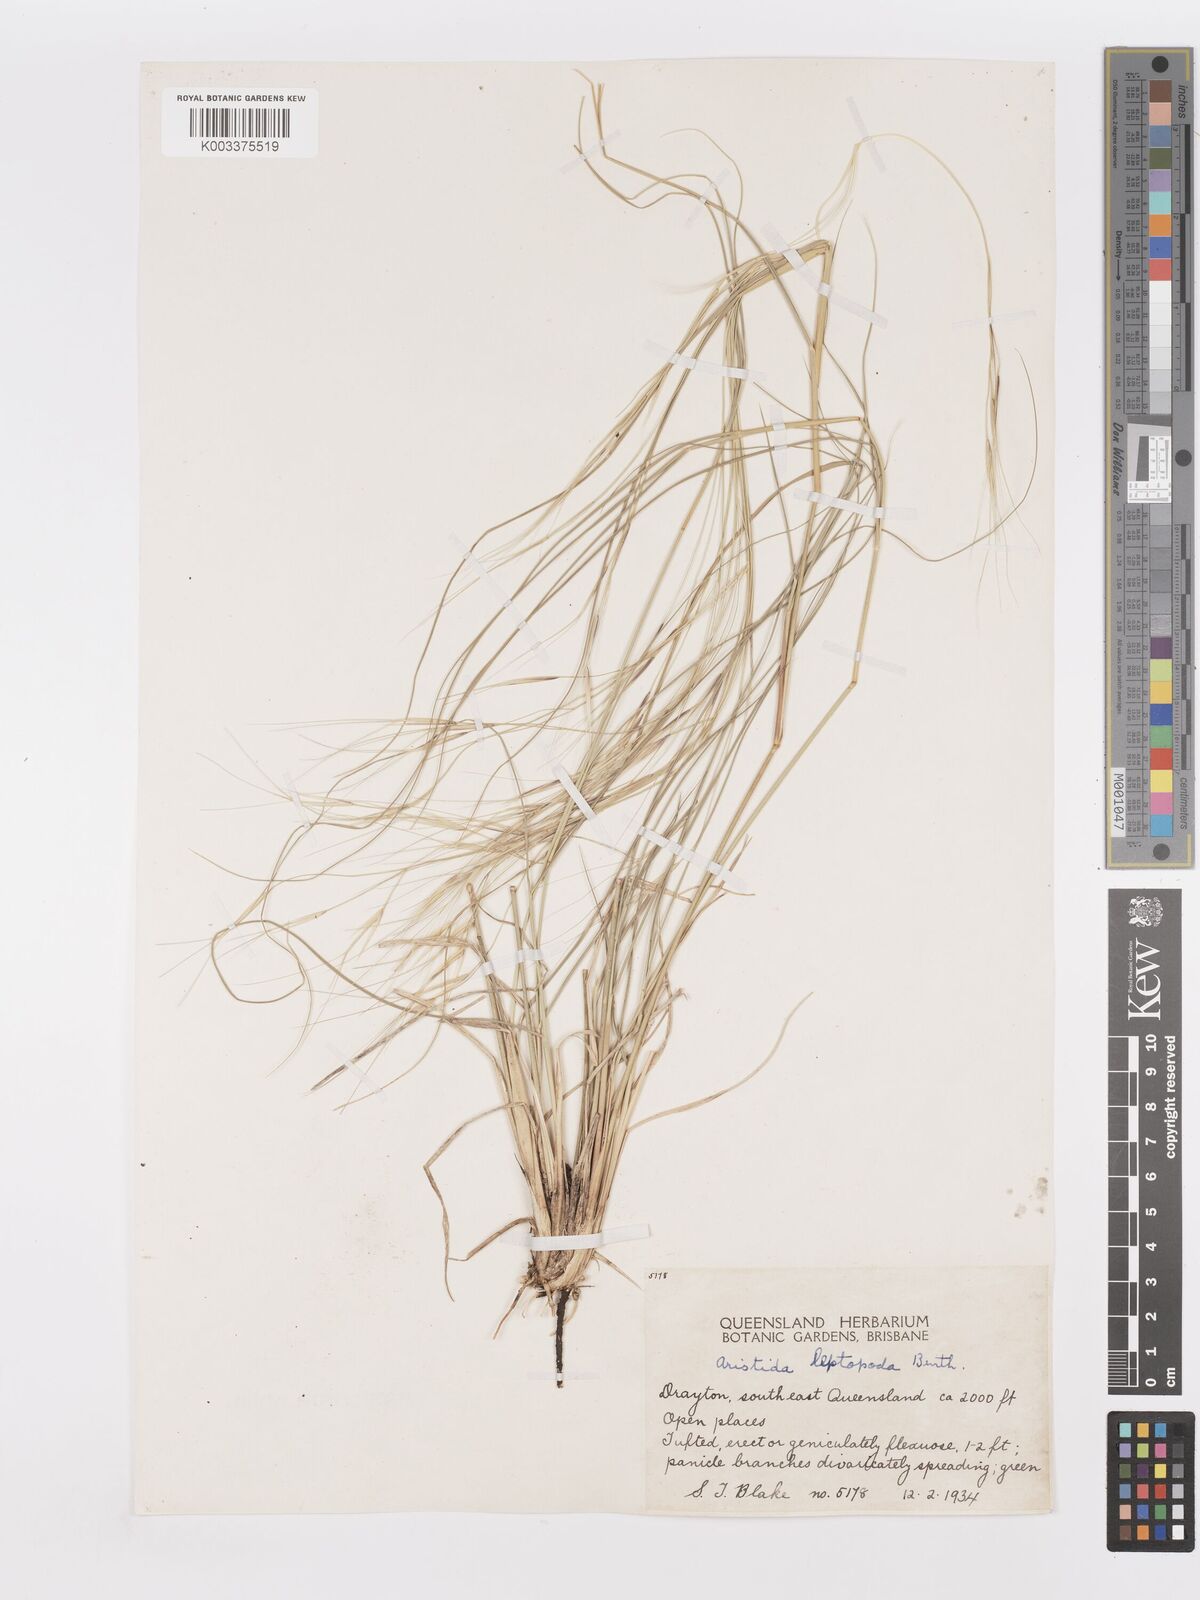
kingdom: Plantae
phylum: Tracheophyta
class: Liliopsida
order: Poales
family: Poaceae
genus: Aristida
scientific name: Aristida leptopoda
